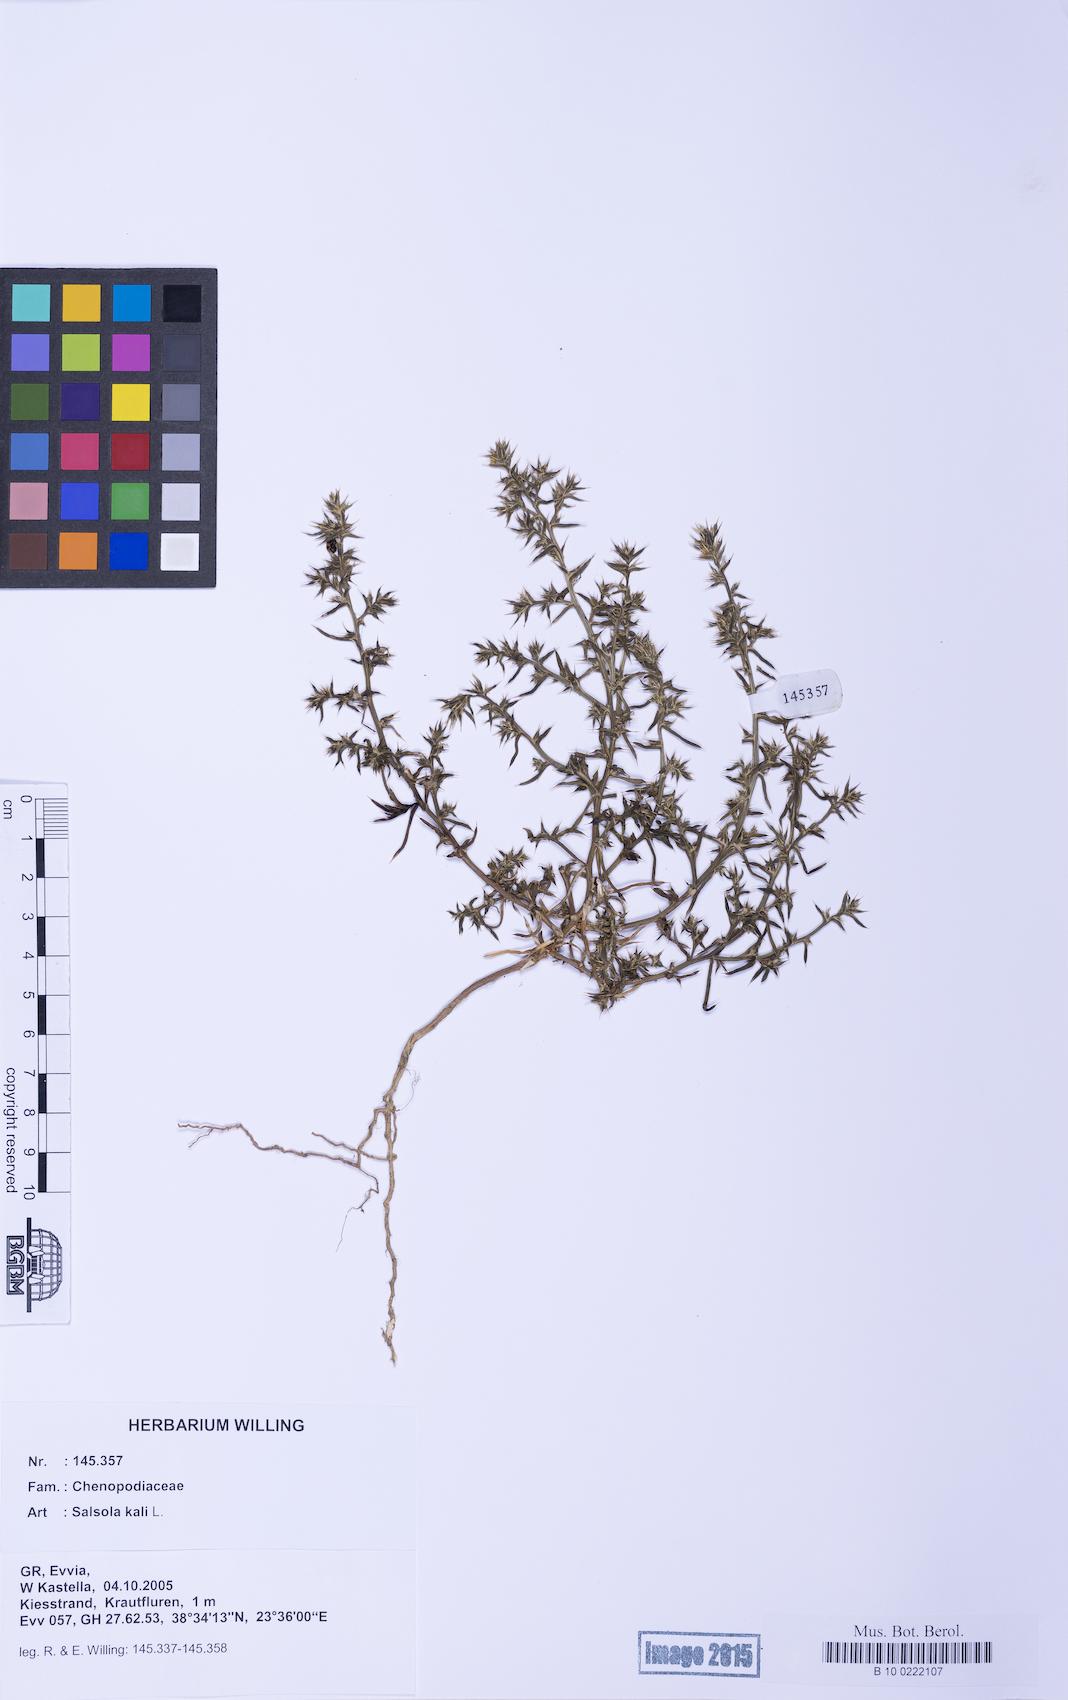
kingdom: Plantae
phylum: Tracheophyta
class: Magnoliopsida
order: Caryophyllales
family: Amaranthaceae
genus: Salsola
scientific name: Salsola kali
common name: Saltwort
